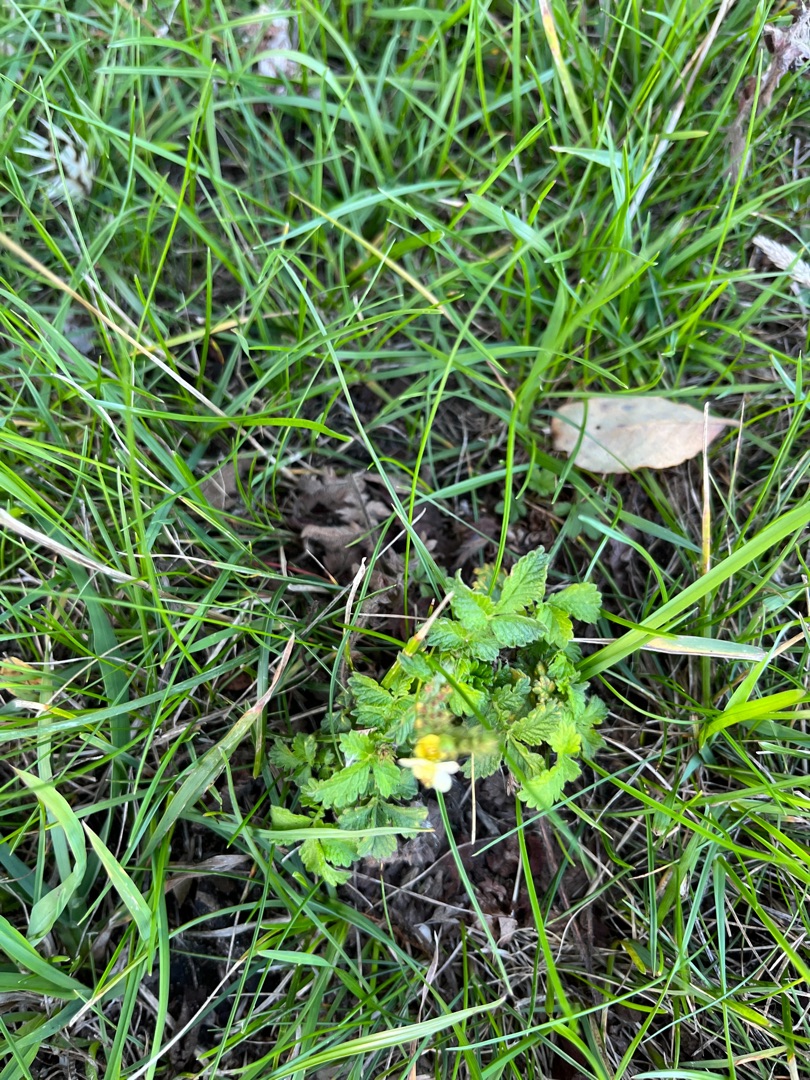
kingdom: Plantae
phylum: Tracheophyta
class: Magnoliopsida
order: Rosales
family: Rosaceae
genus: Agrimonia
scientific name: Agrimonia
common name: Agermåneslægten
